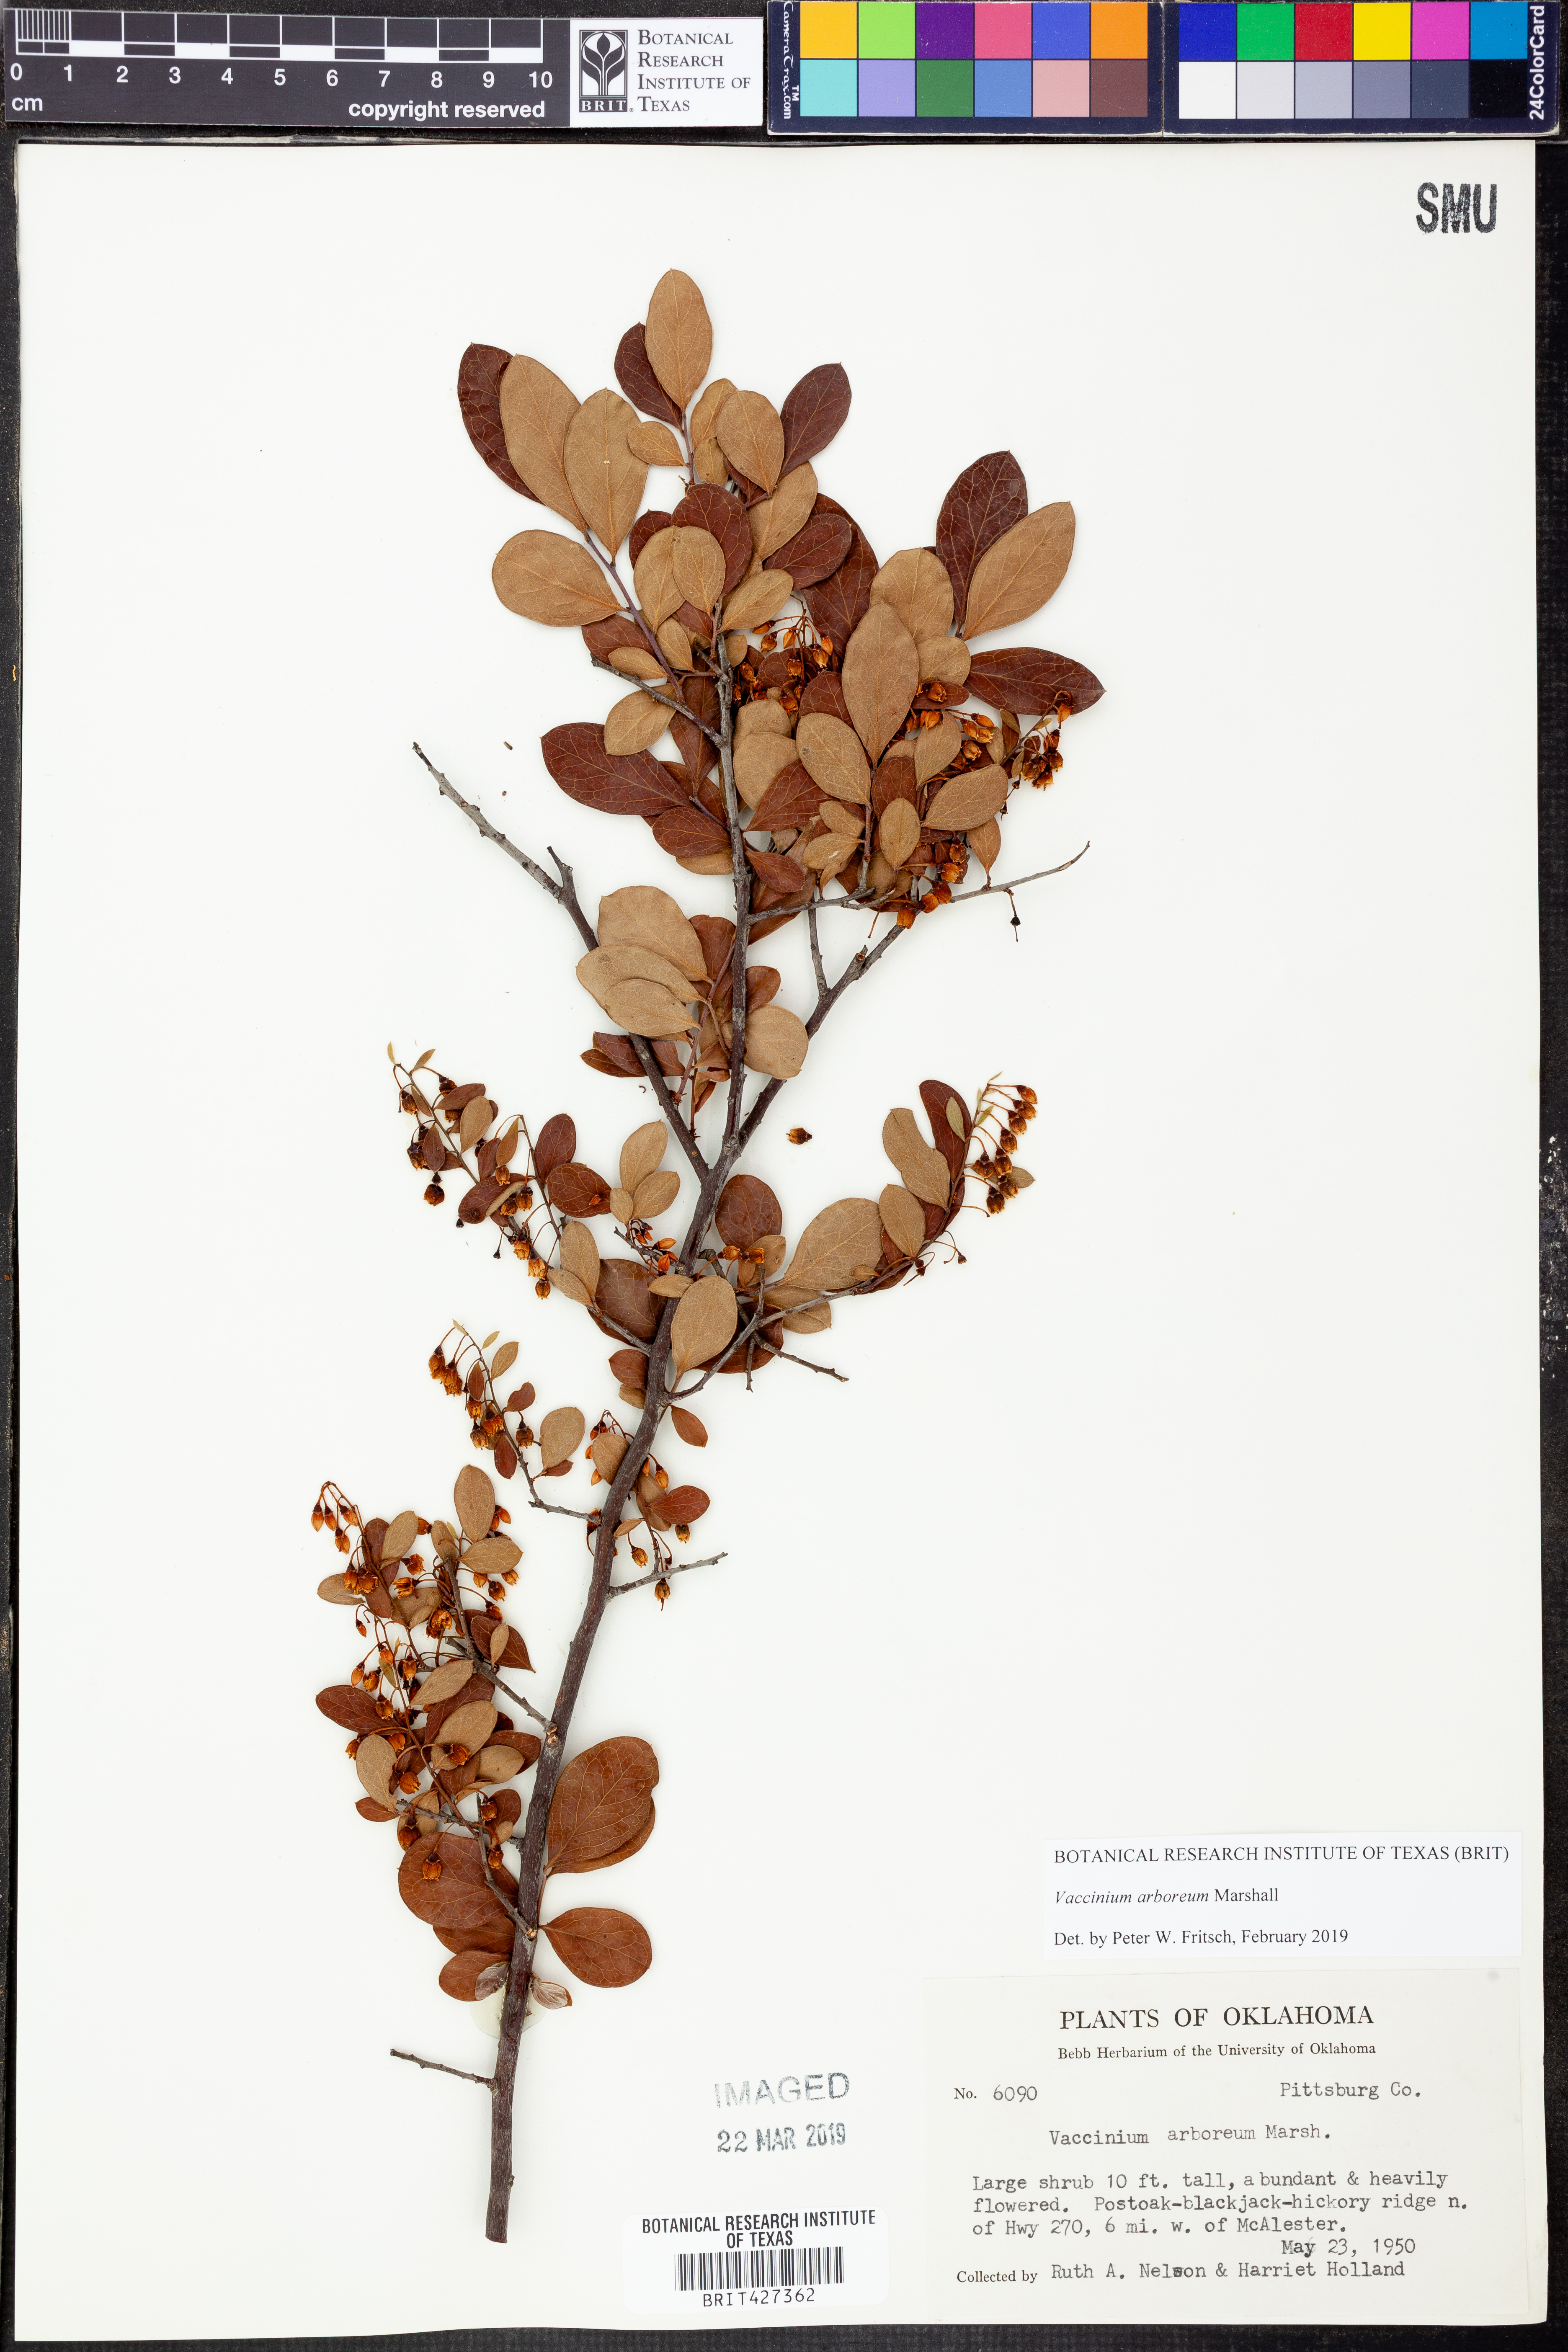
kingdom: Plantae
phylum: Tracheophyta
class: Magnoliopsida
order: Ericales
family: Ericaceae
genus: Vaccinium
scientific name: Vaccinium arboreum
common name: Farkleberry
